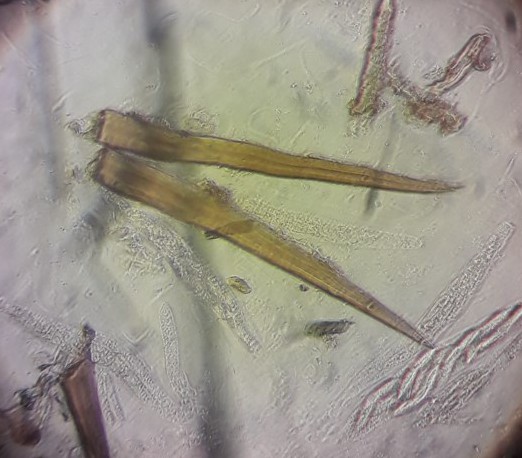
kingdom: Fungi
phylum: Ascomycota
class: Sordariomycetes
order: Sordariales
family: Helminthosphaeriaceae
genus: Echinosphaeria
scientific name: Echinosphaeria canescens
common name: brun børstekerne
